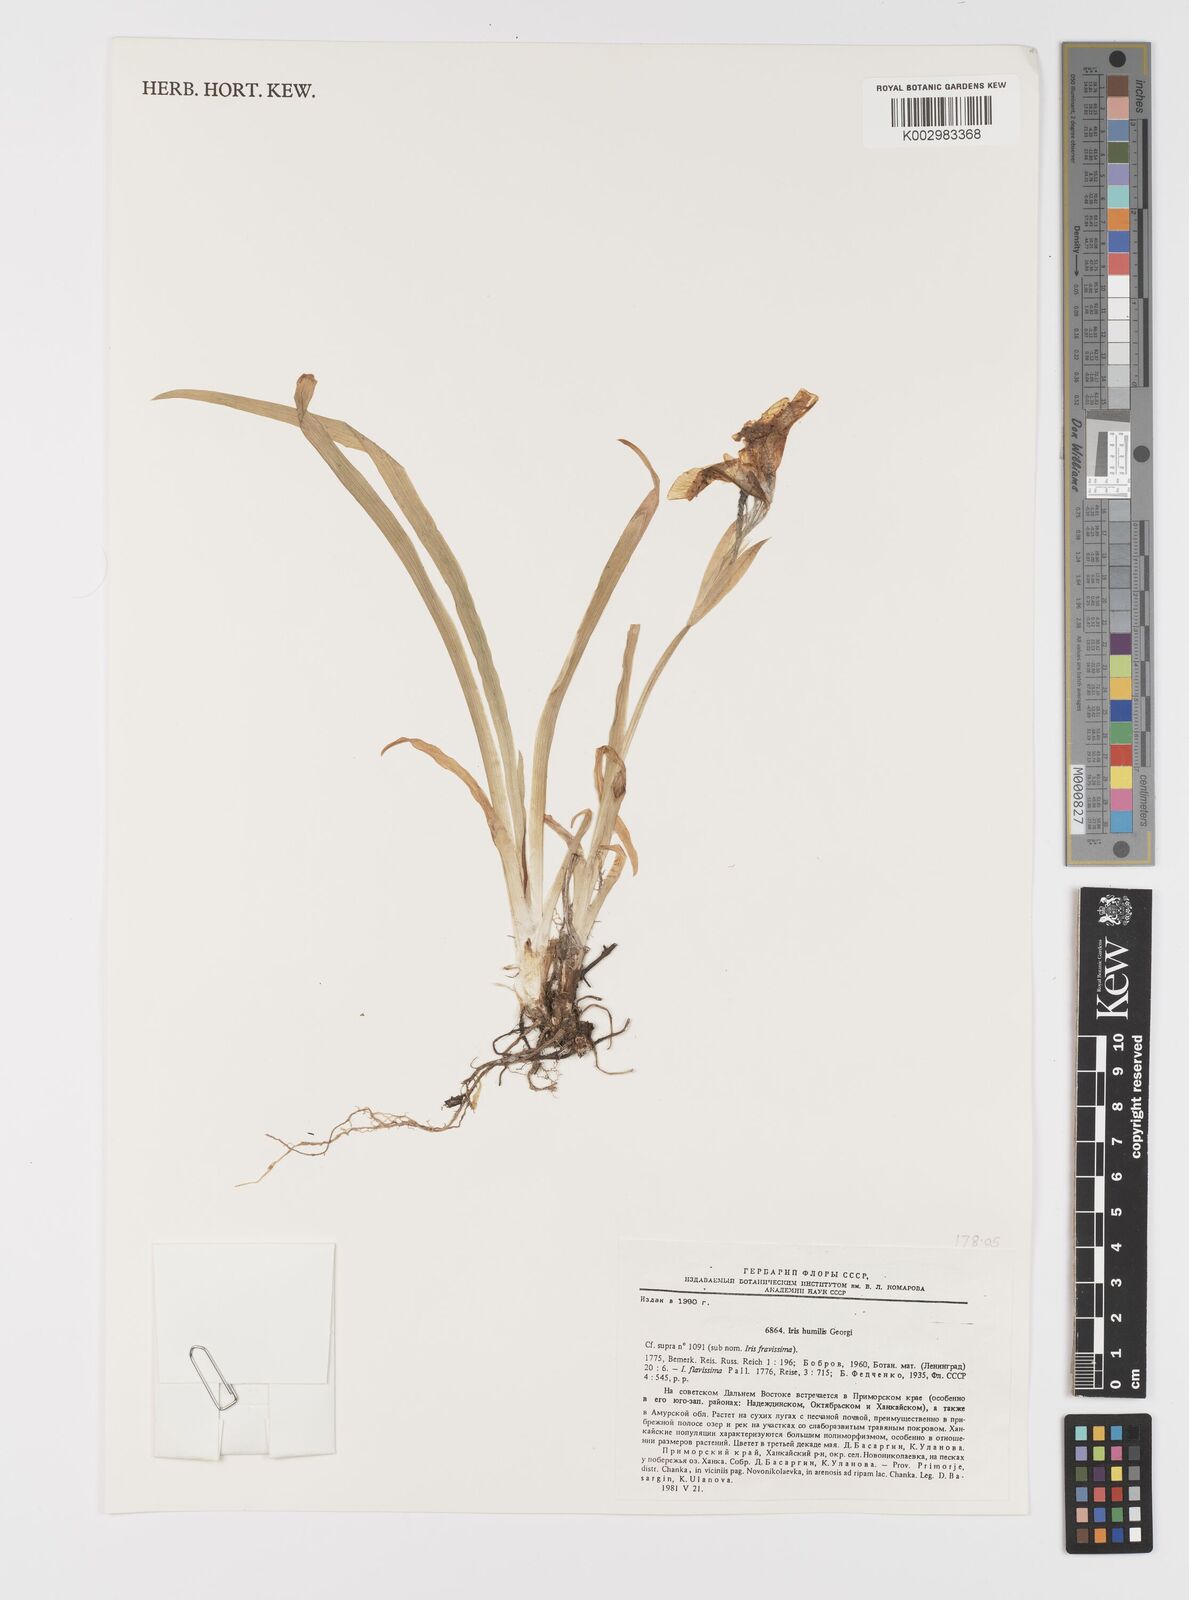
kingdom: Plantae
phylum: Tracheophyta
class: Liliopsida
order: Asparagales
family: Iridaceae
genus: Iris
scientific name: Iris
